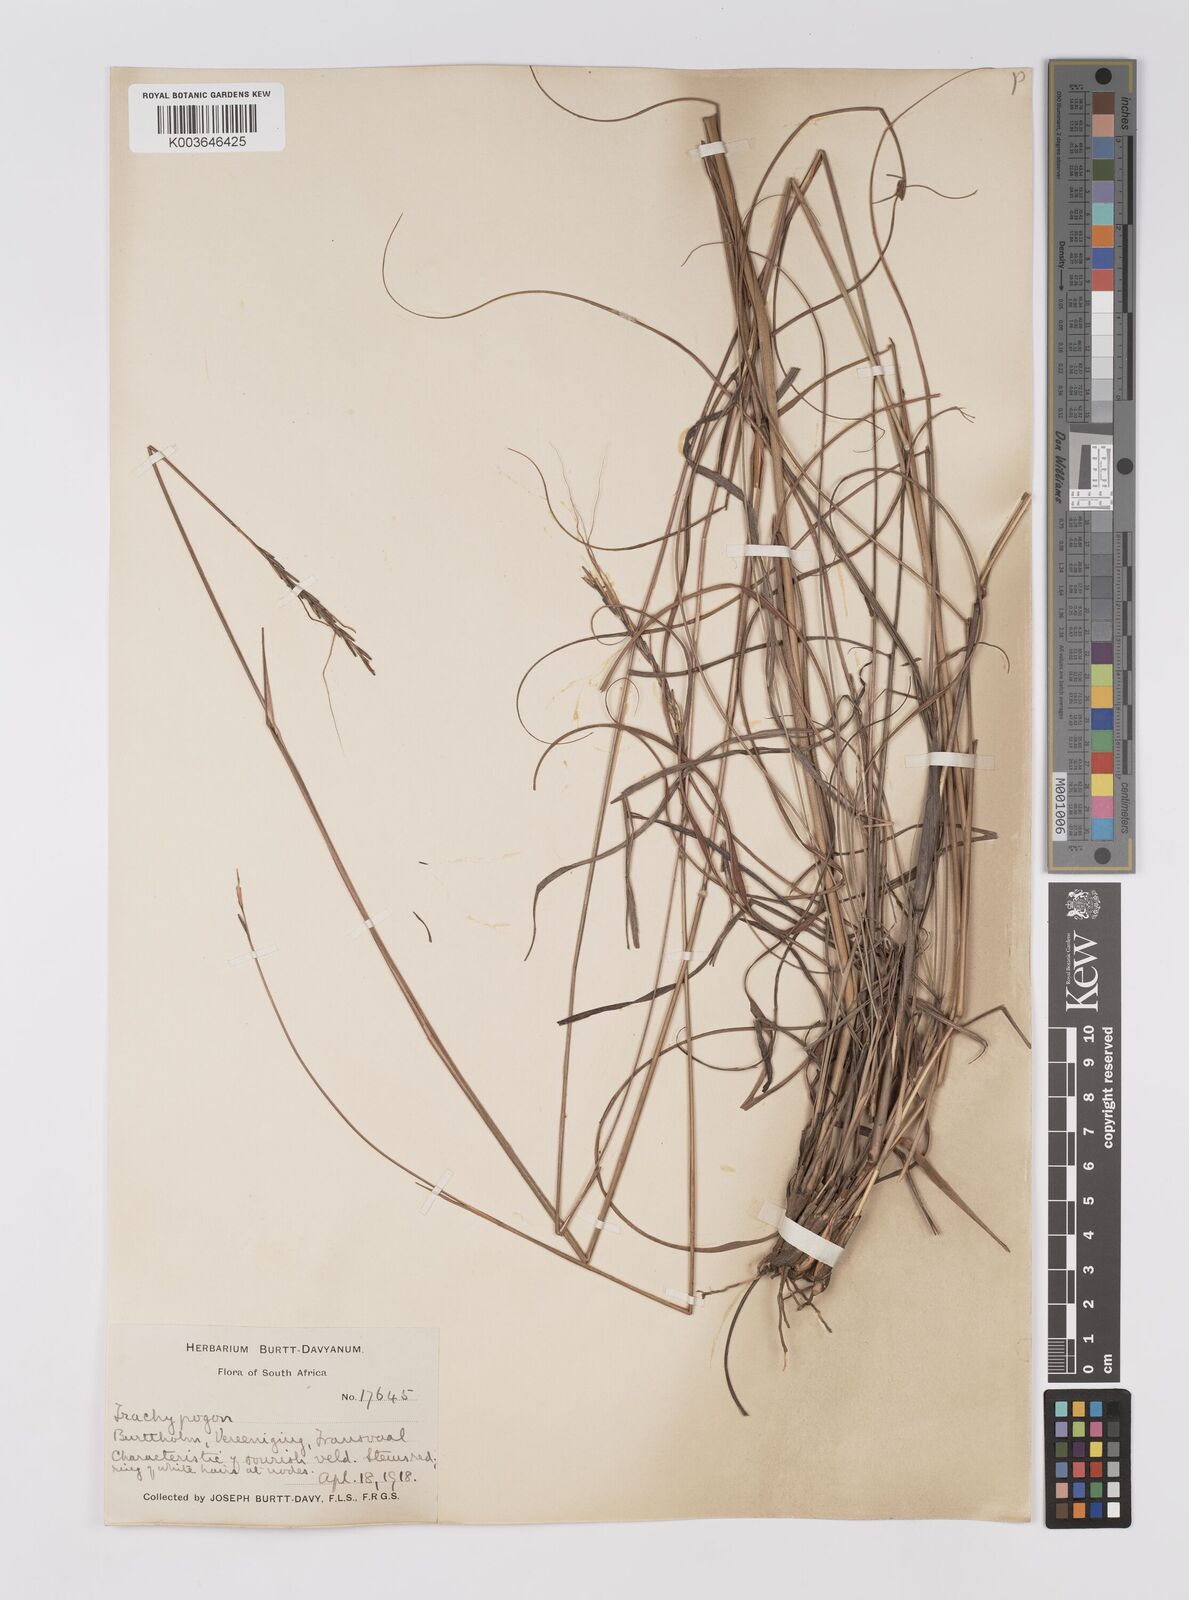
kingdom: Plantae
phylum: Tracheophyta
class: Liliopsida
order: Poales
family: Poaceae
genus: Trachypogon
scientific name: Trachypogon spicatus
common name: Crinkle-awn
